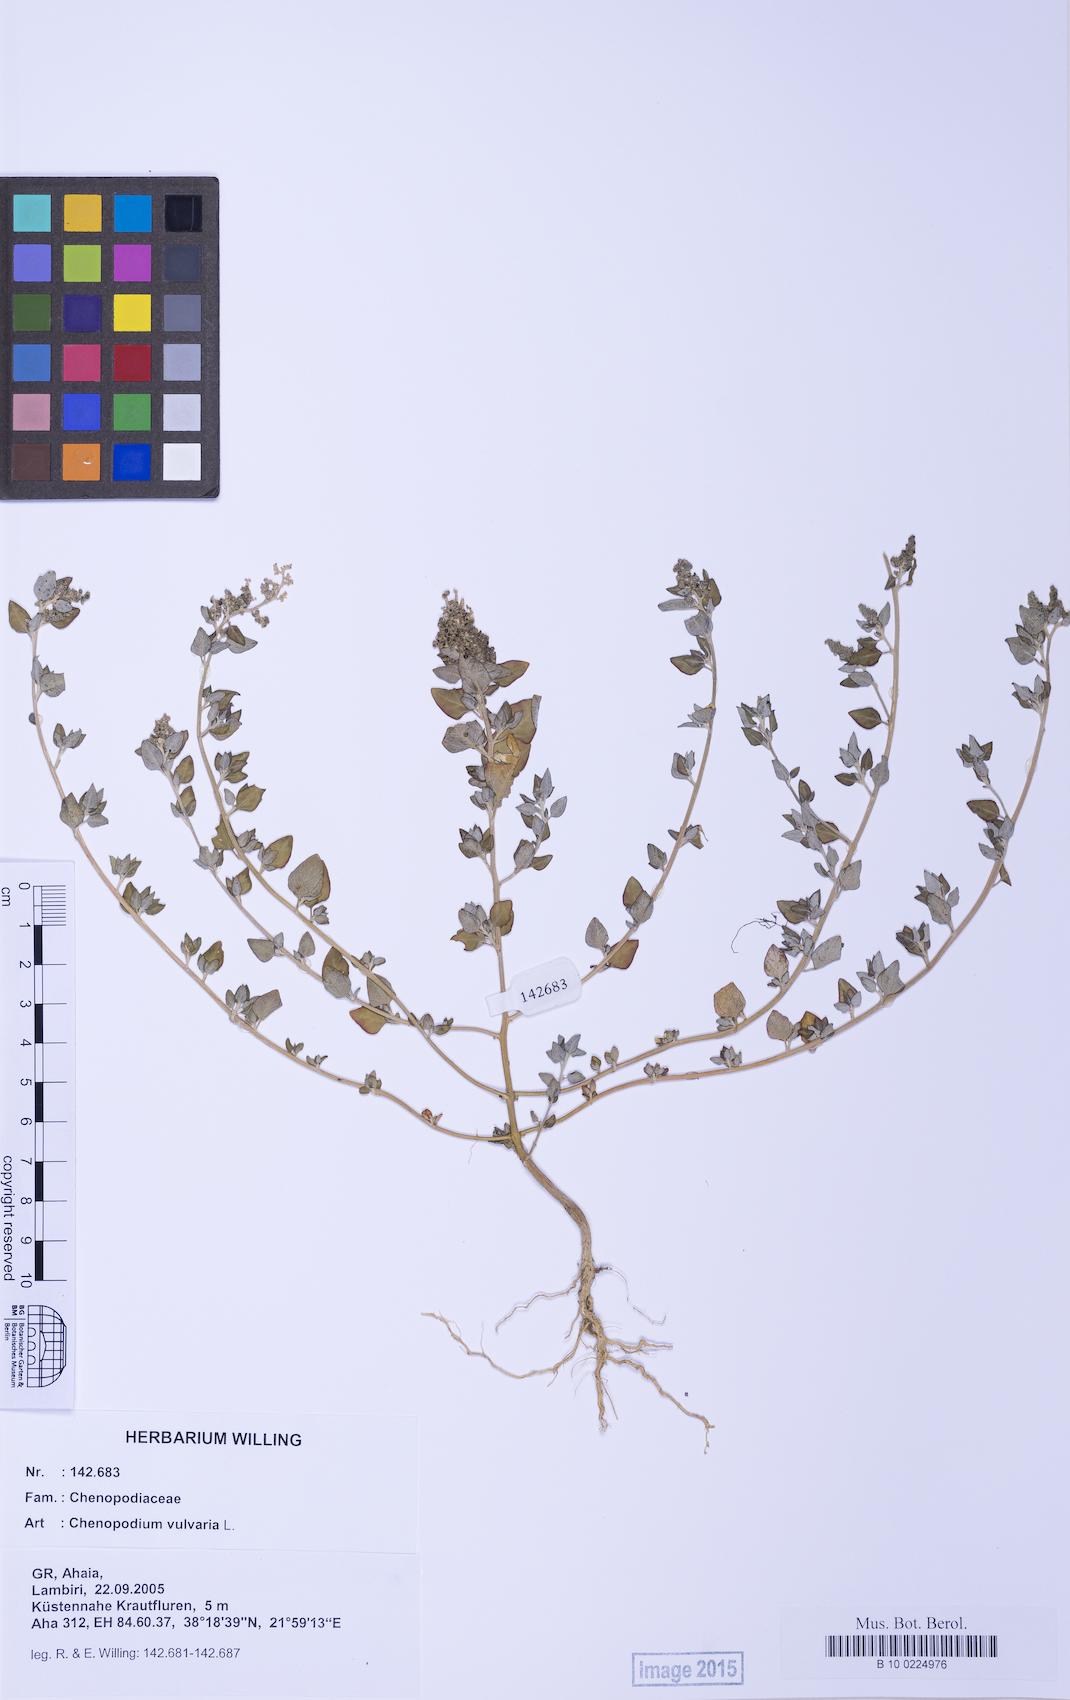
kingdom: Plantae
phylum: Tracheophyta
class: Magnoliopsida
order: Caryophyllales
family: Amaranthaceae
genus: Chenopodium
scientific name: Chenopodium vulvaria
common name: Stinking goosefoot
